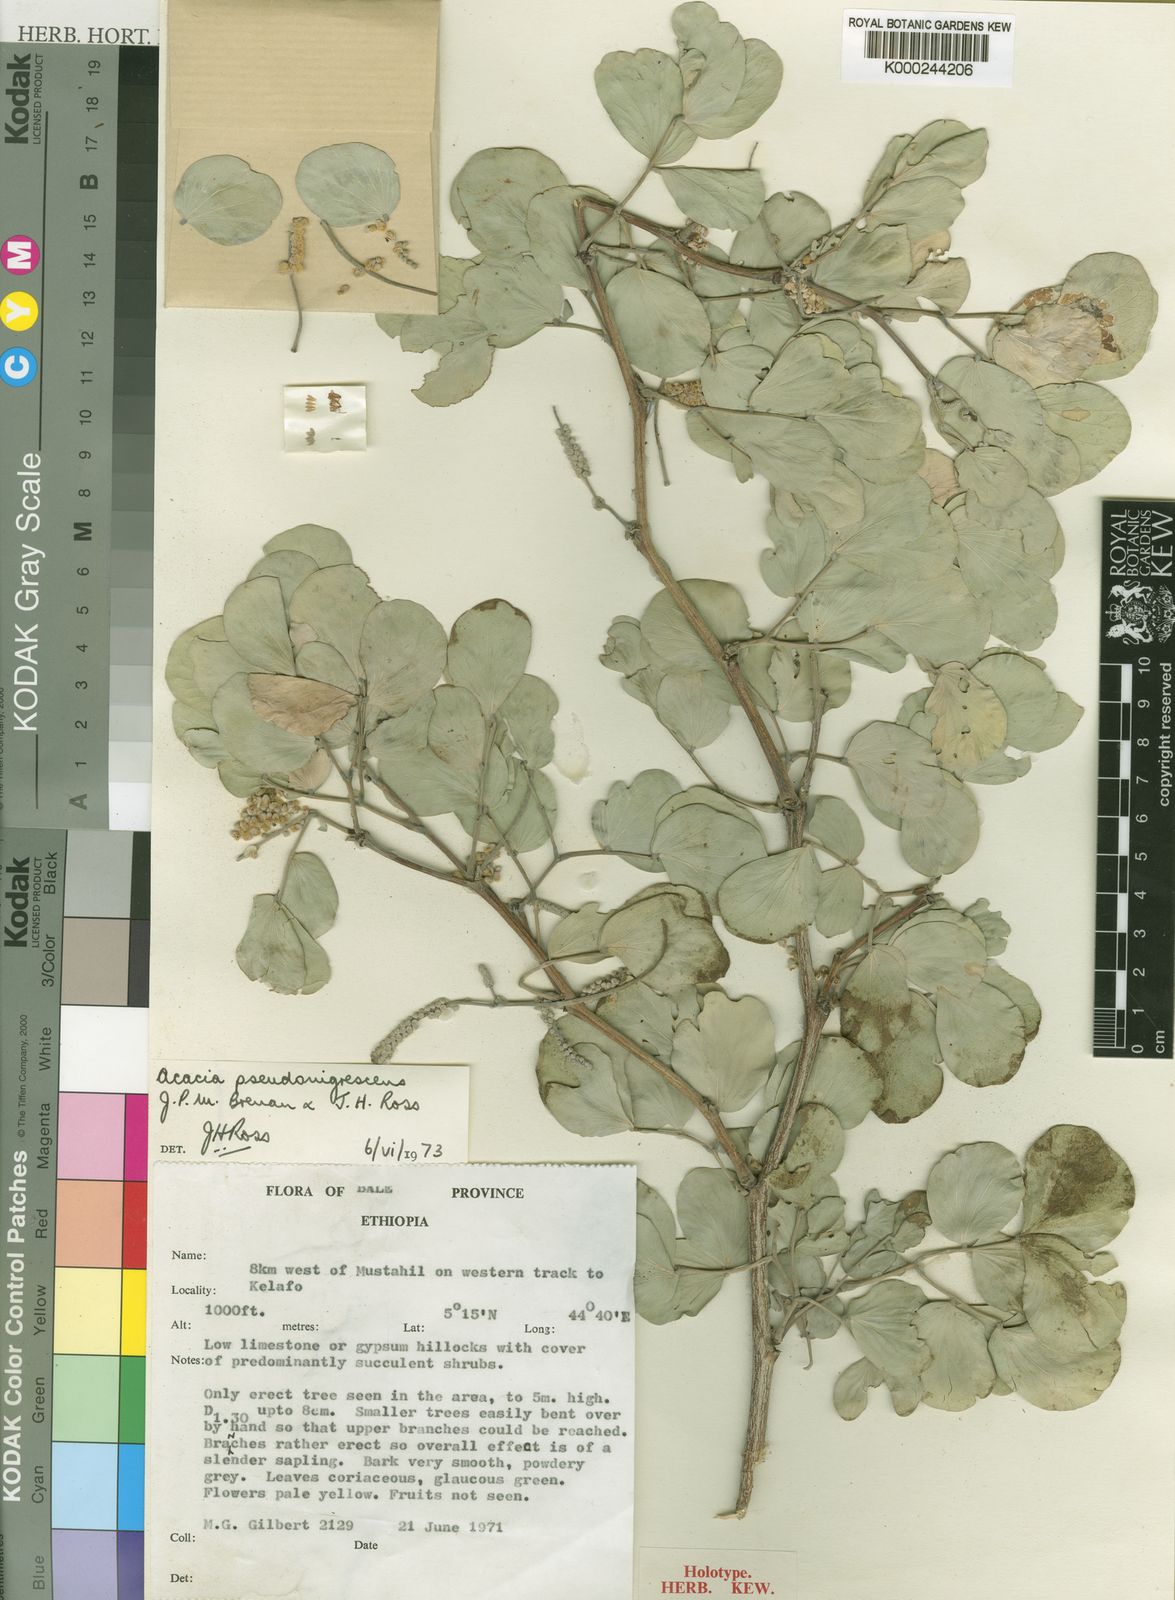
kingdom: Plantae
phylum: Tracheophyta
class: Magnoliopsida
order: Fabales
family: Fabaceae
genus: Senegalia
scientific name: Senegalia pseudonigrescens
